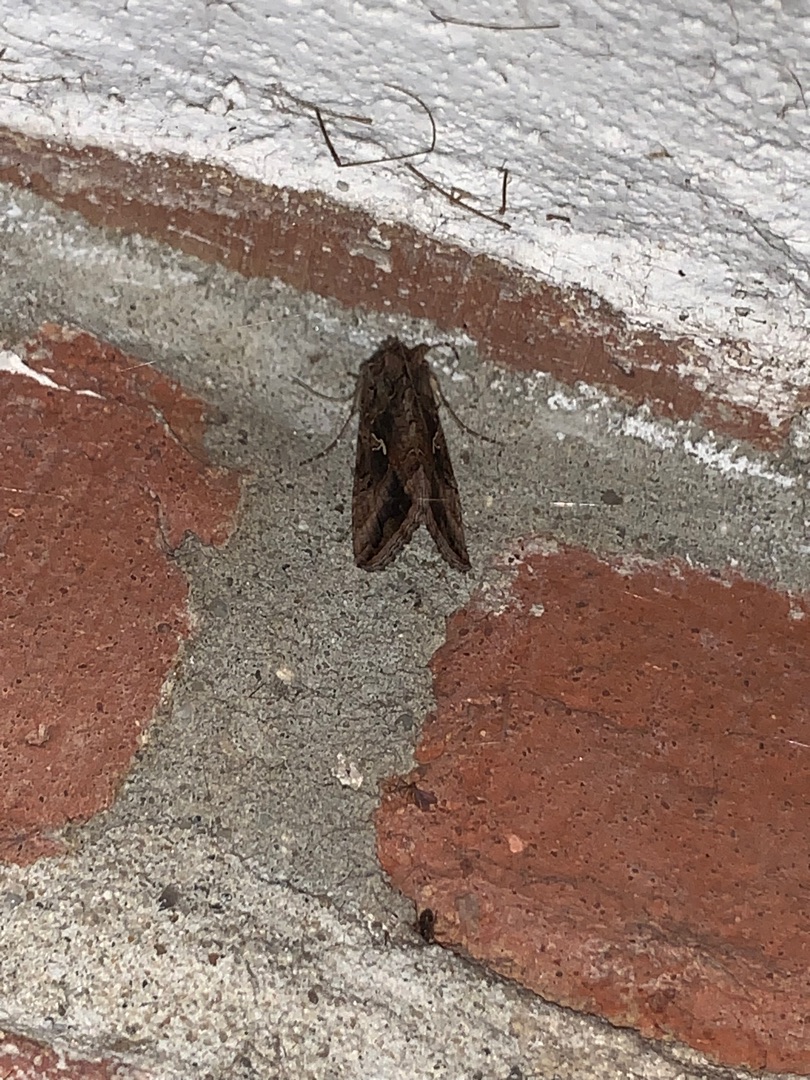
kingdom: Animalia
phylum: Arthropoda
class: Insecta
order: Lepidoptera
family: Noctuidae
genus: Autographa
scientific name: Autographa gamma
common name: Gammaugle
